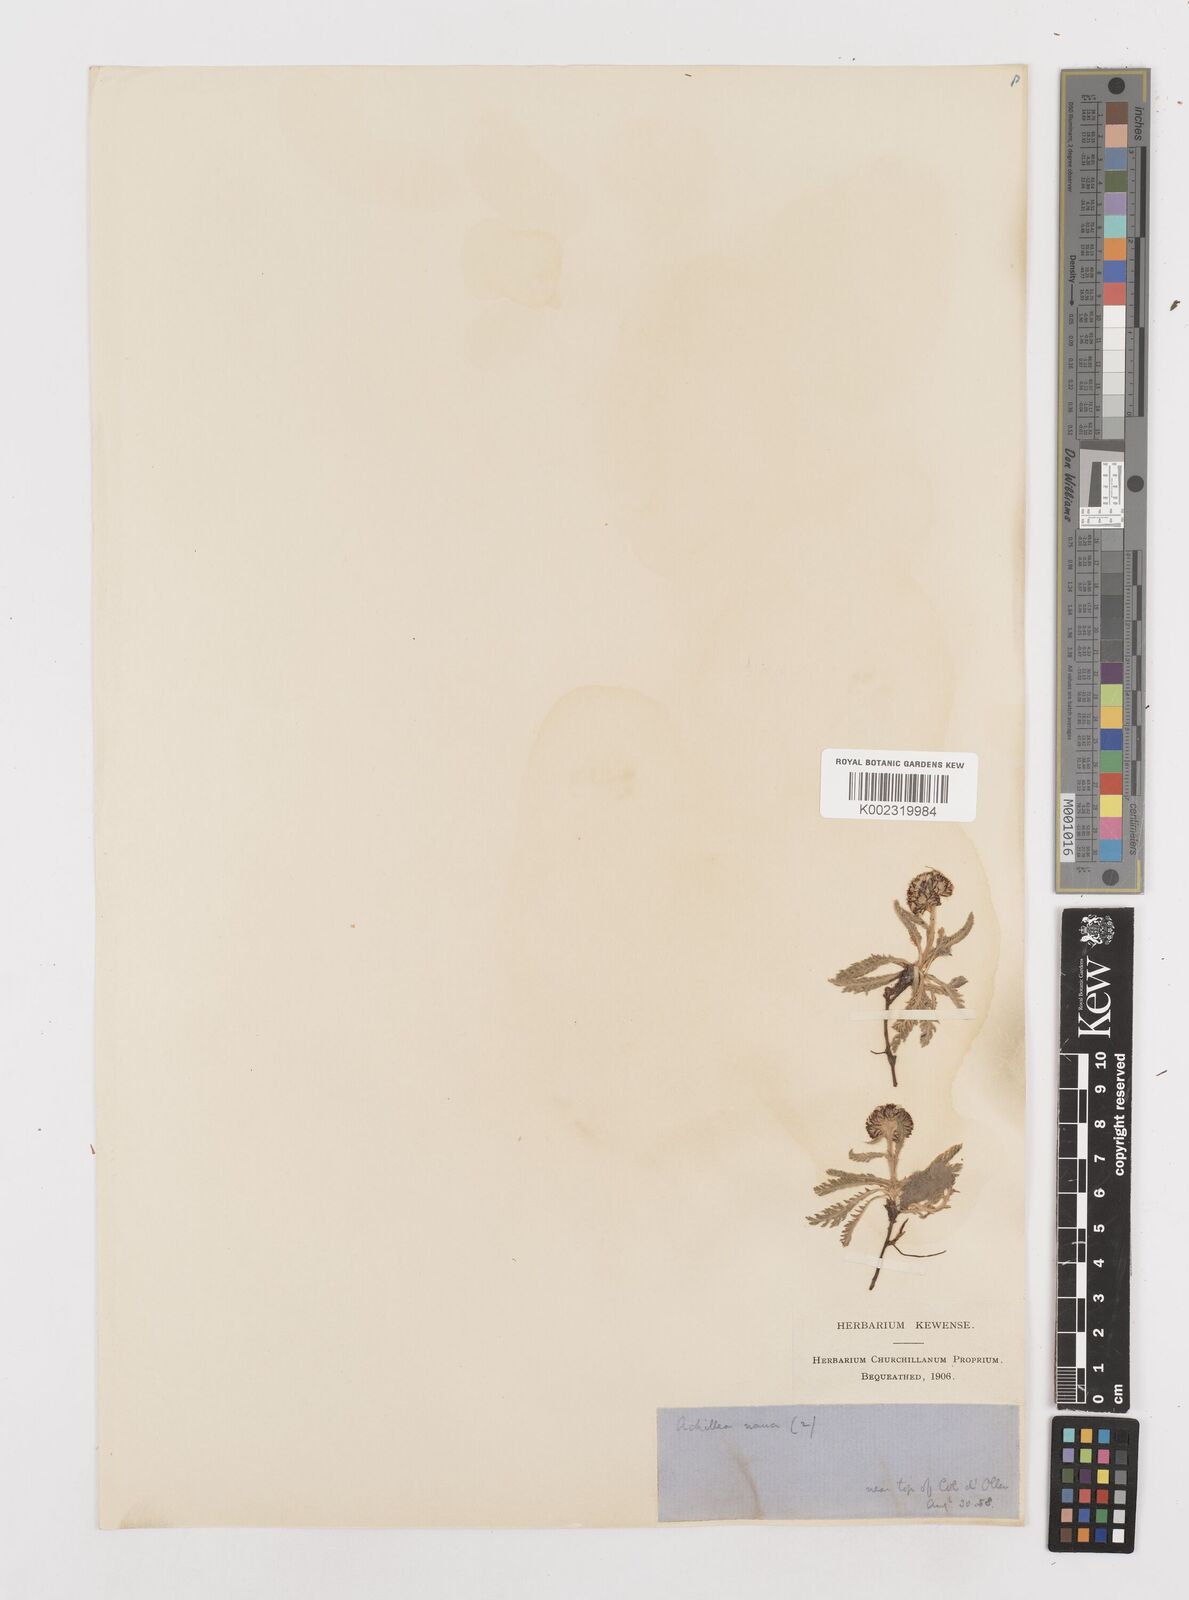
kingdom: Plantae
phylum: Tracheophyta
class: Magnoliopsida
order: Asterales
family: Asteraceae
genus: Achillea
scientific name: Achillea nana
